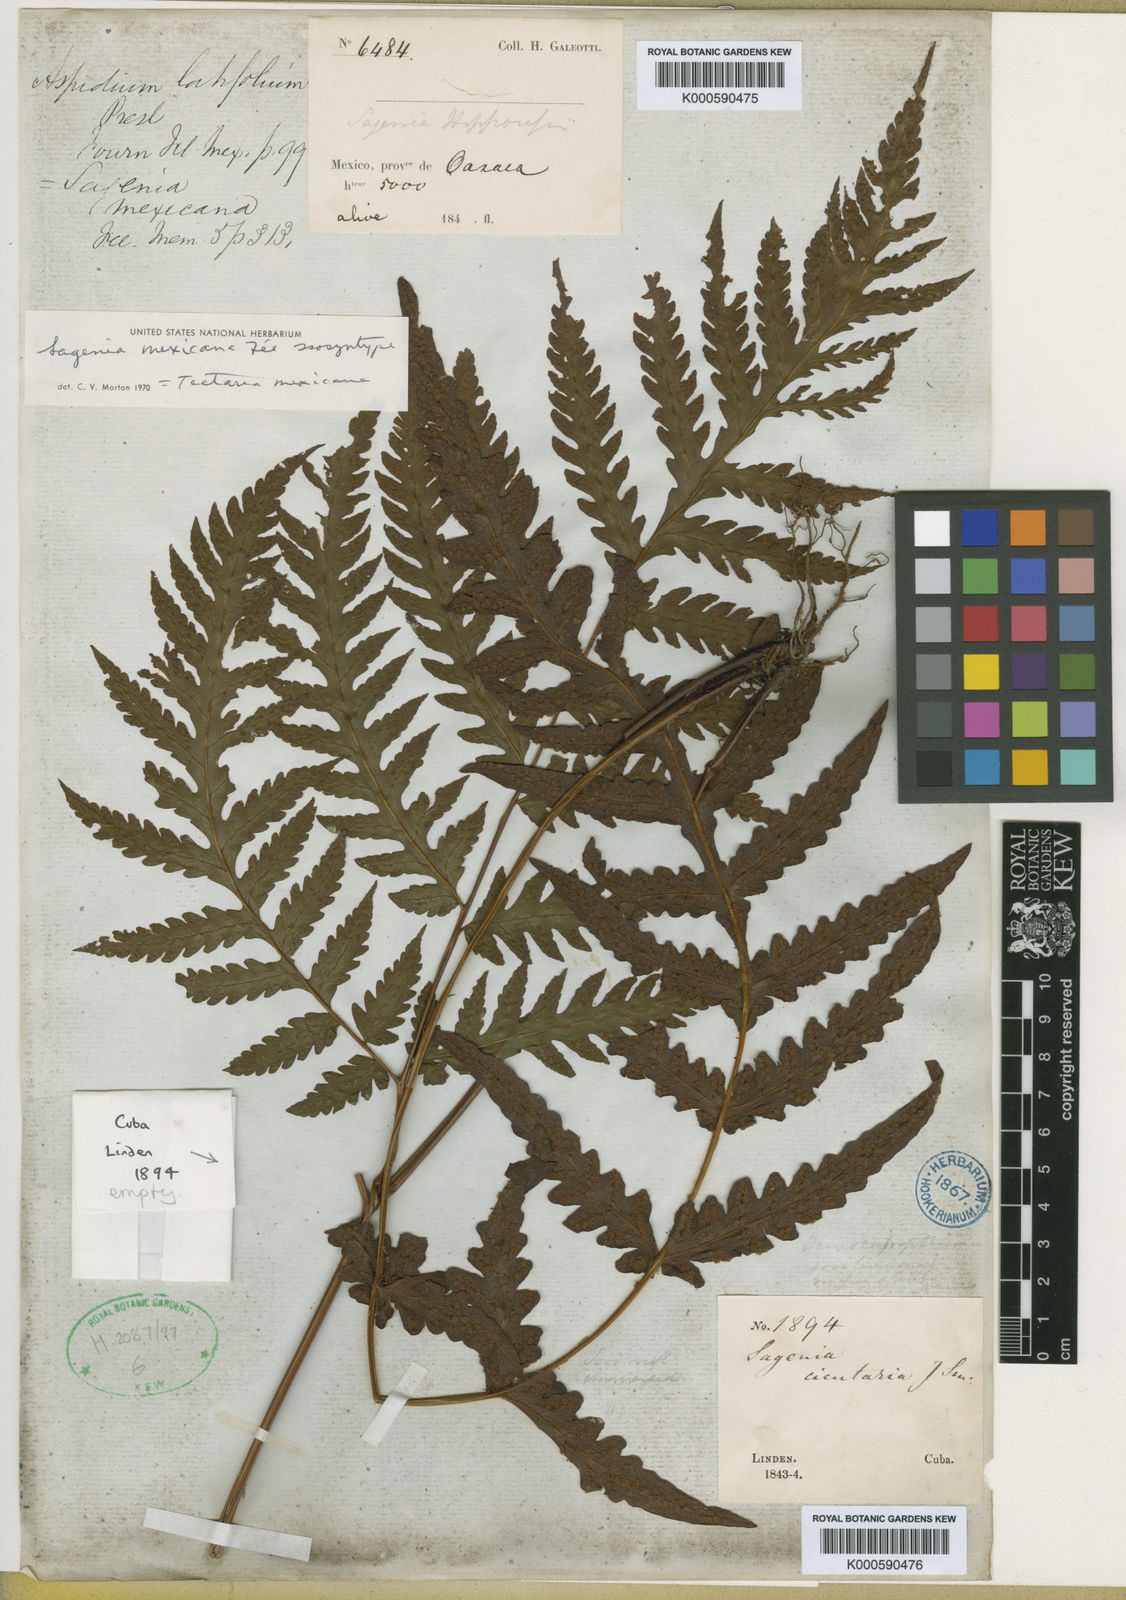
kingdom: Plantae
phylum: Tracheophyta
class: Polypodiopsida
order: Polypodiales
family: Tectariaceae
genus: Tectaria
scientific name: Tectaria
